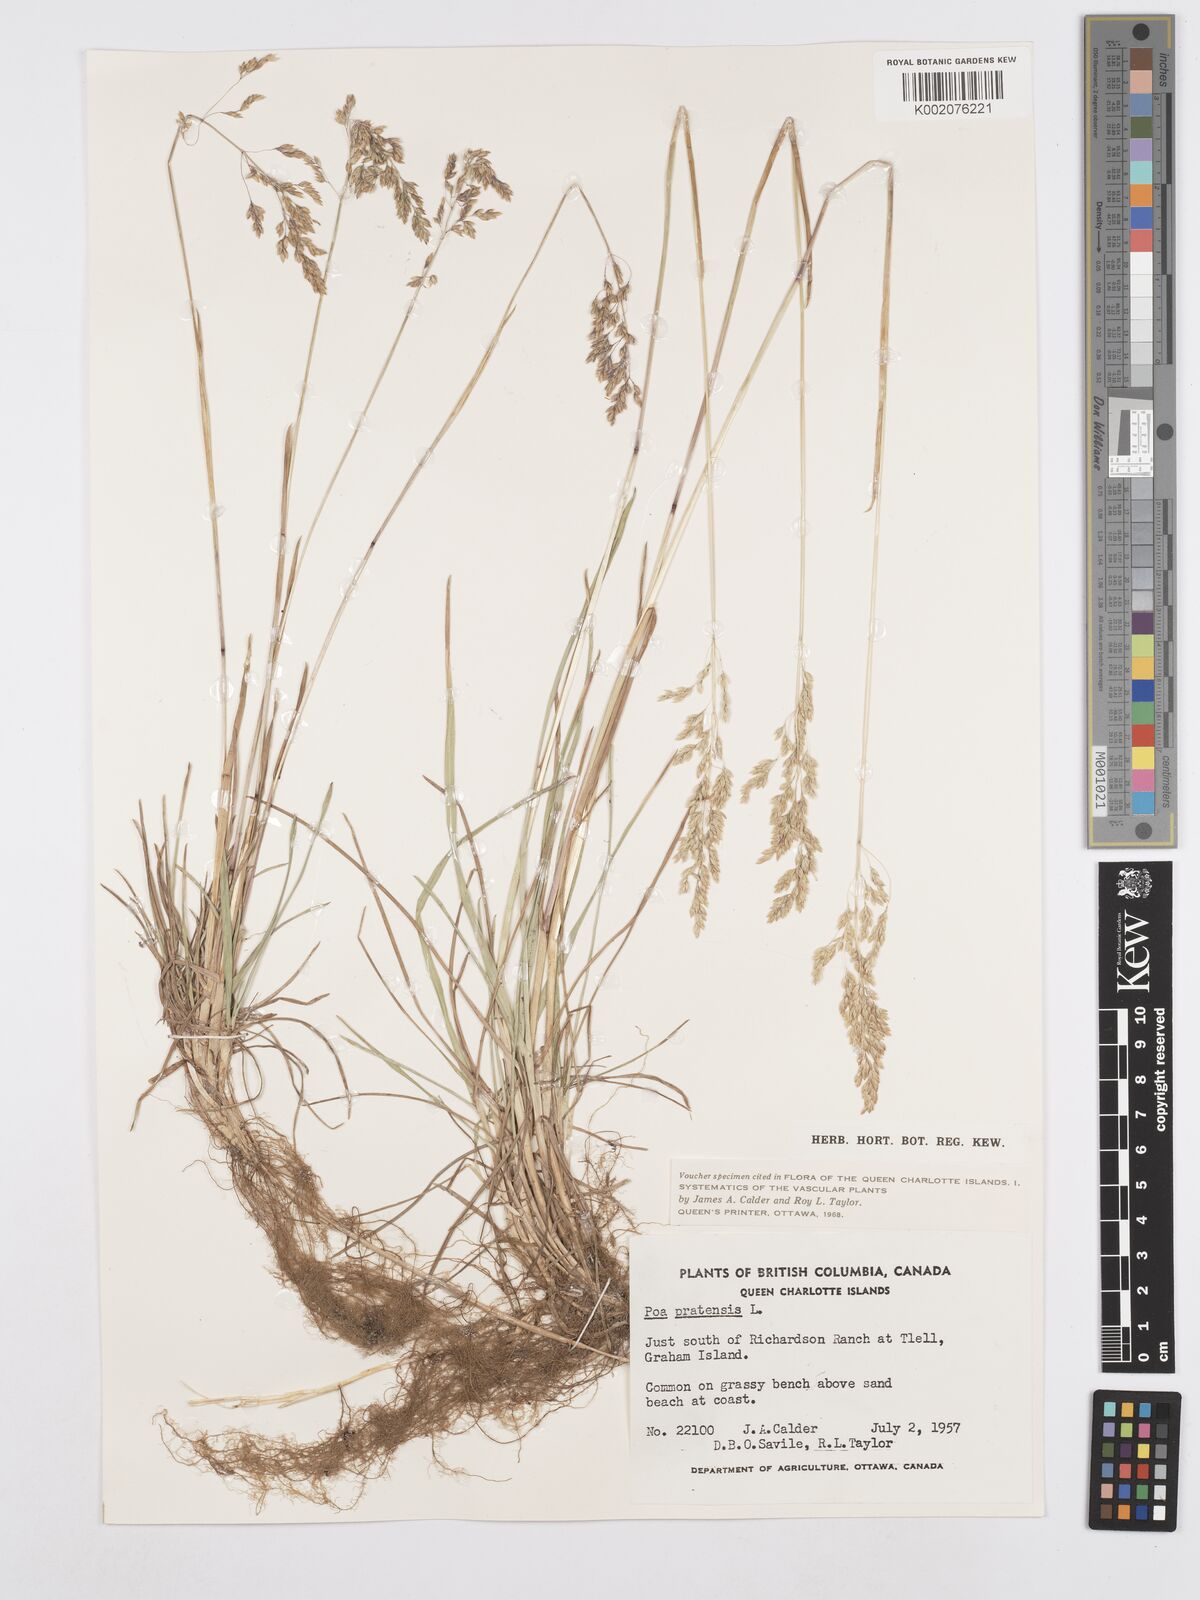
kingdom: Plantae
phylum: Tracheophyta
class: Liliopsida
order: Poales
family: Poaceae
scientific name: Poaceae
